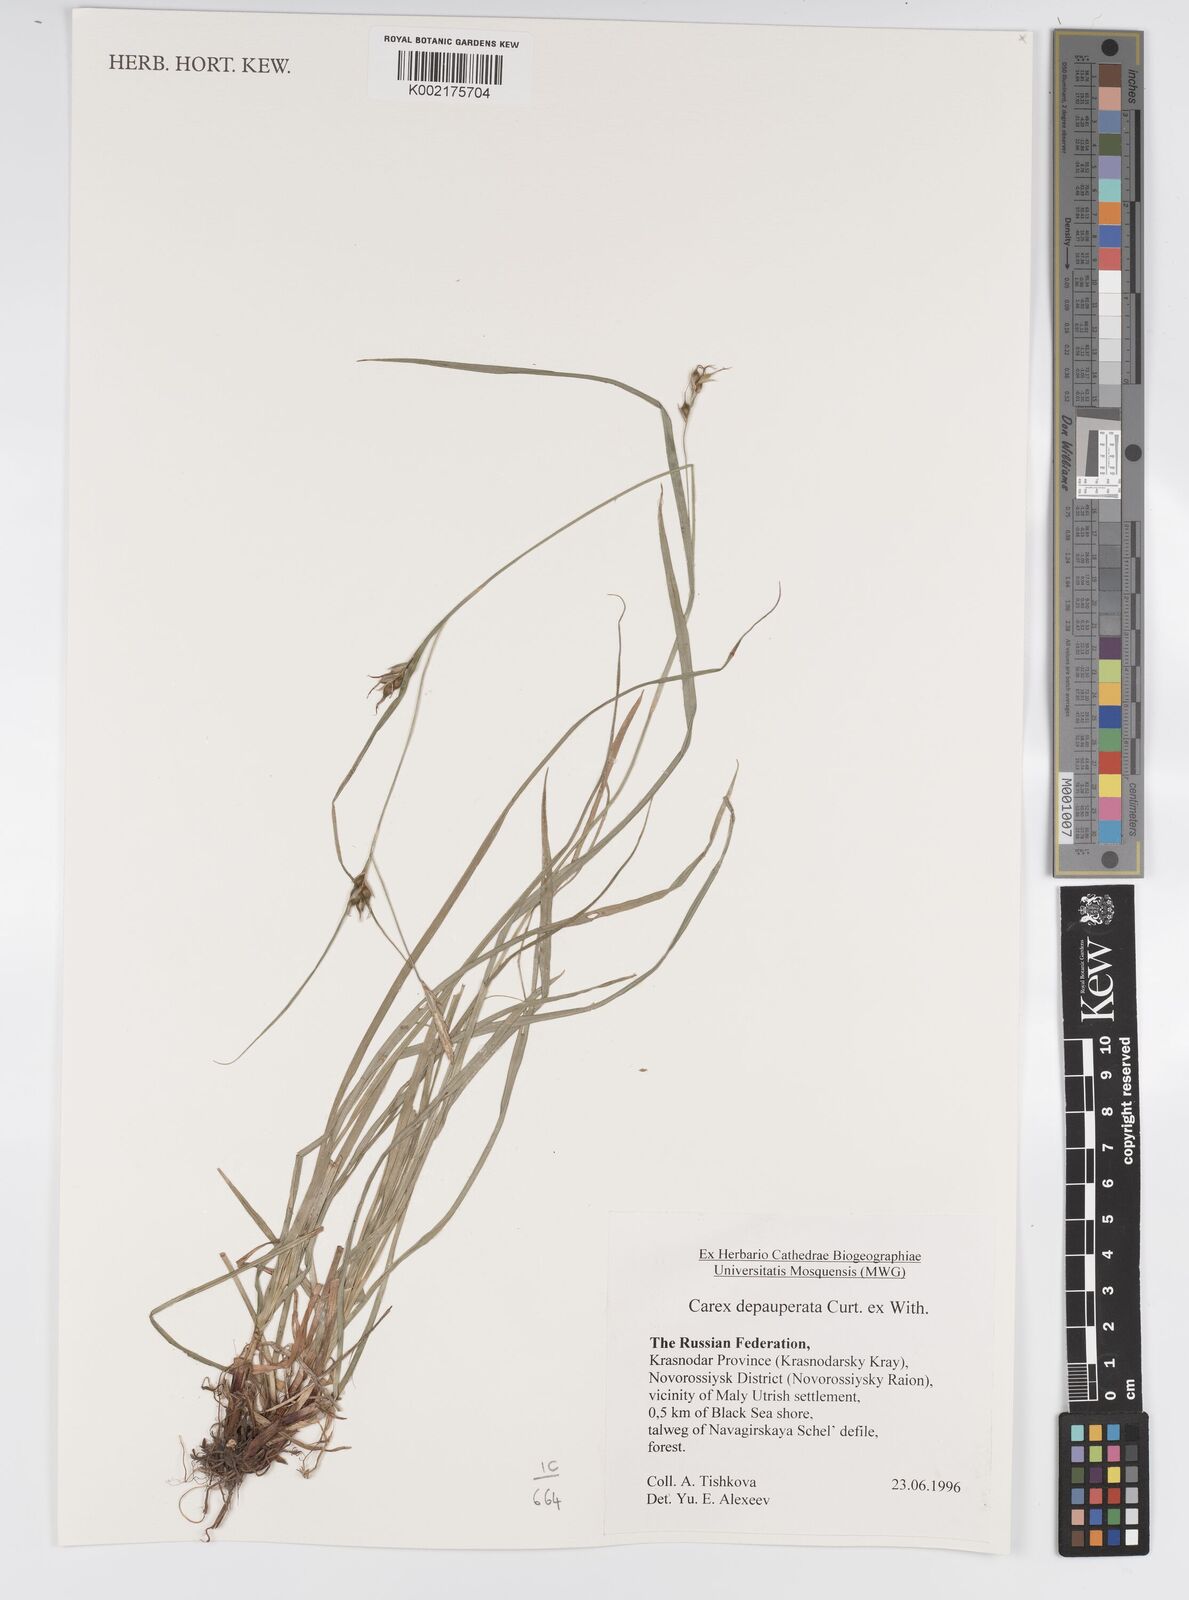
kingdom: Plantae
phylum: Tracheophyta
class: Liliopsida
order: Poales
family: Cyperaceae
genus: Carex
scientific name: Carex
